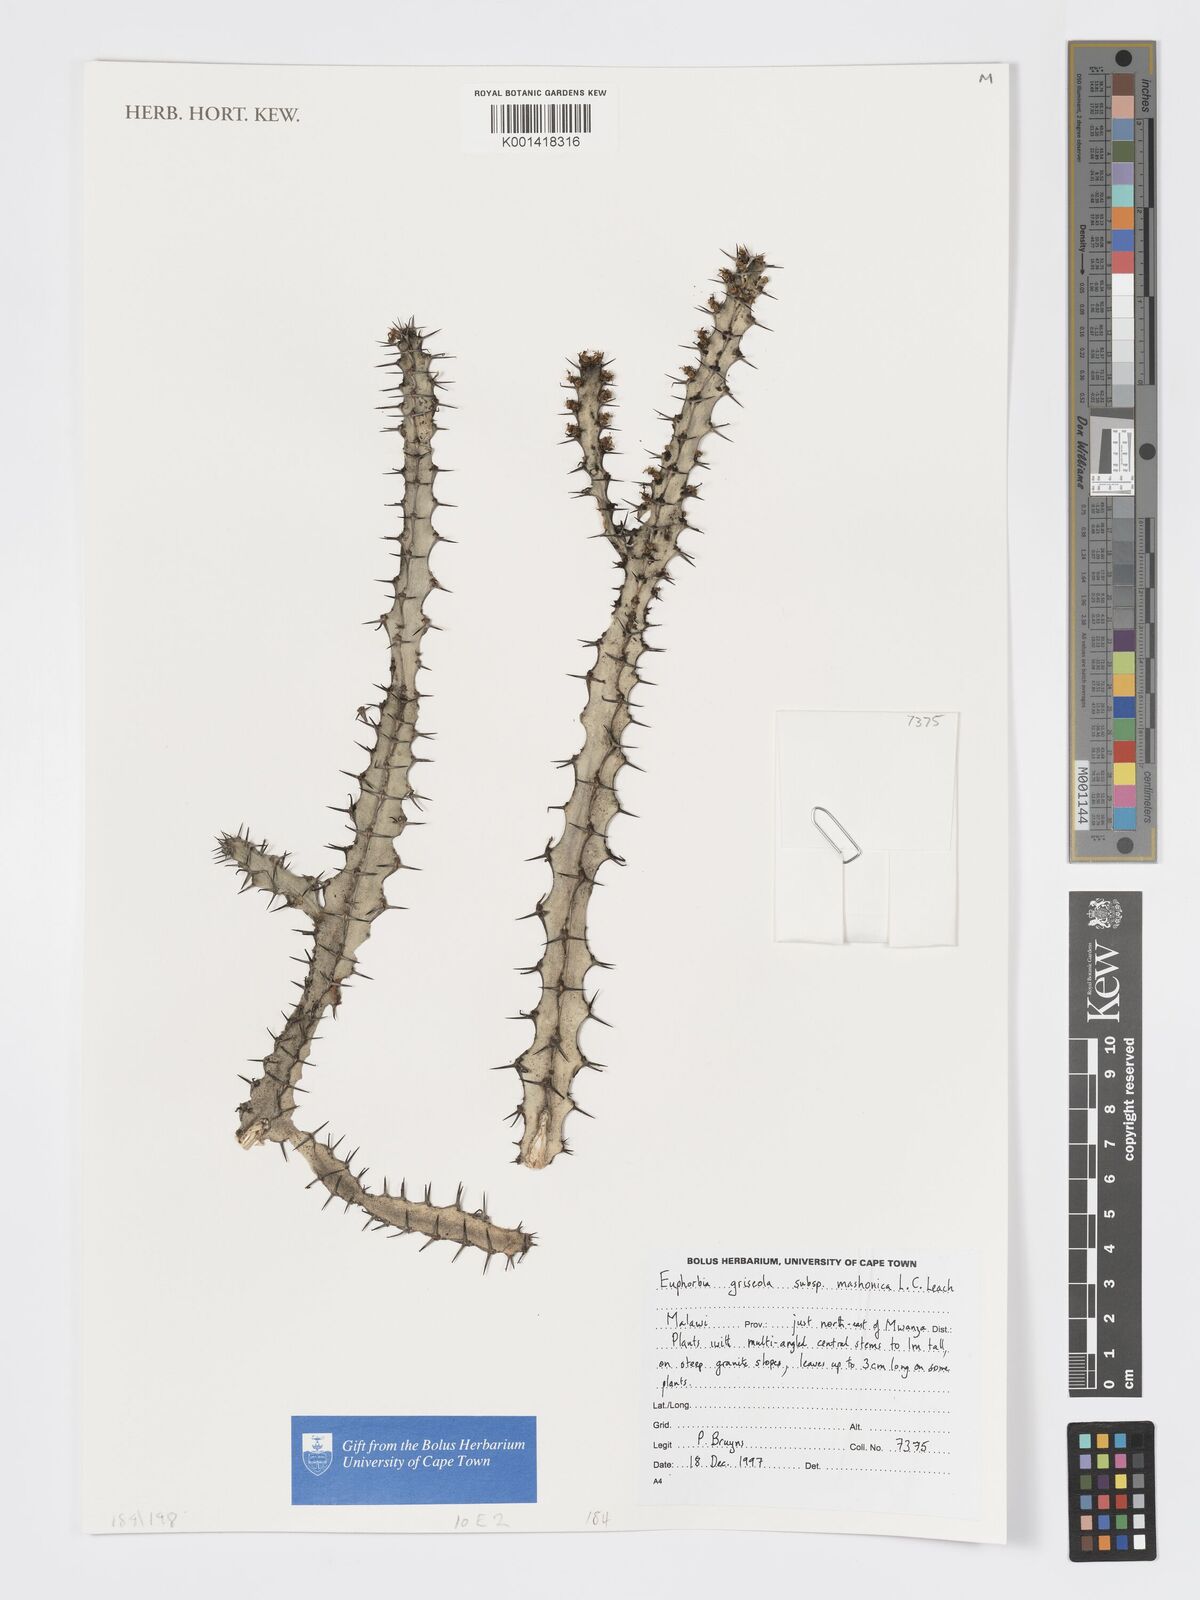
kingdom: Plantae
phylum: Tracheophyta
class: Magnoliopsida
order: Malpighiales
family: Euphorbiaceae
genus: Euphorbia
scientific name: Euphorbia griseola
